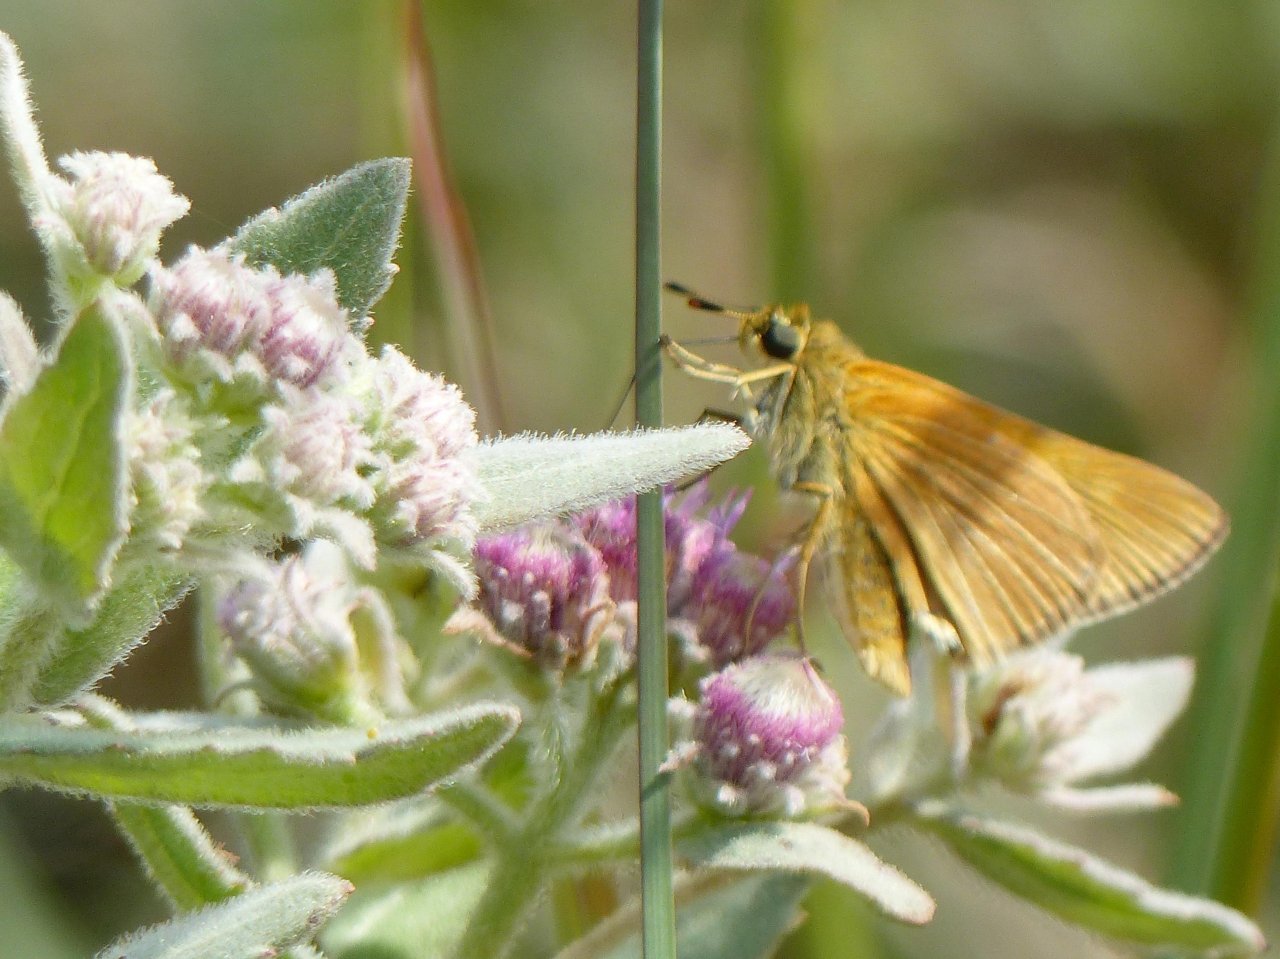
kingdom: Animalia
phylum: Arthropoda
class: Insecta
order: Lepidoptera
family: Hesperiidae
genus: Euphyes
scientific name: Euphyes berryi
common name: Berry's Skipper
